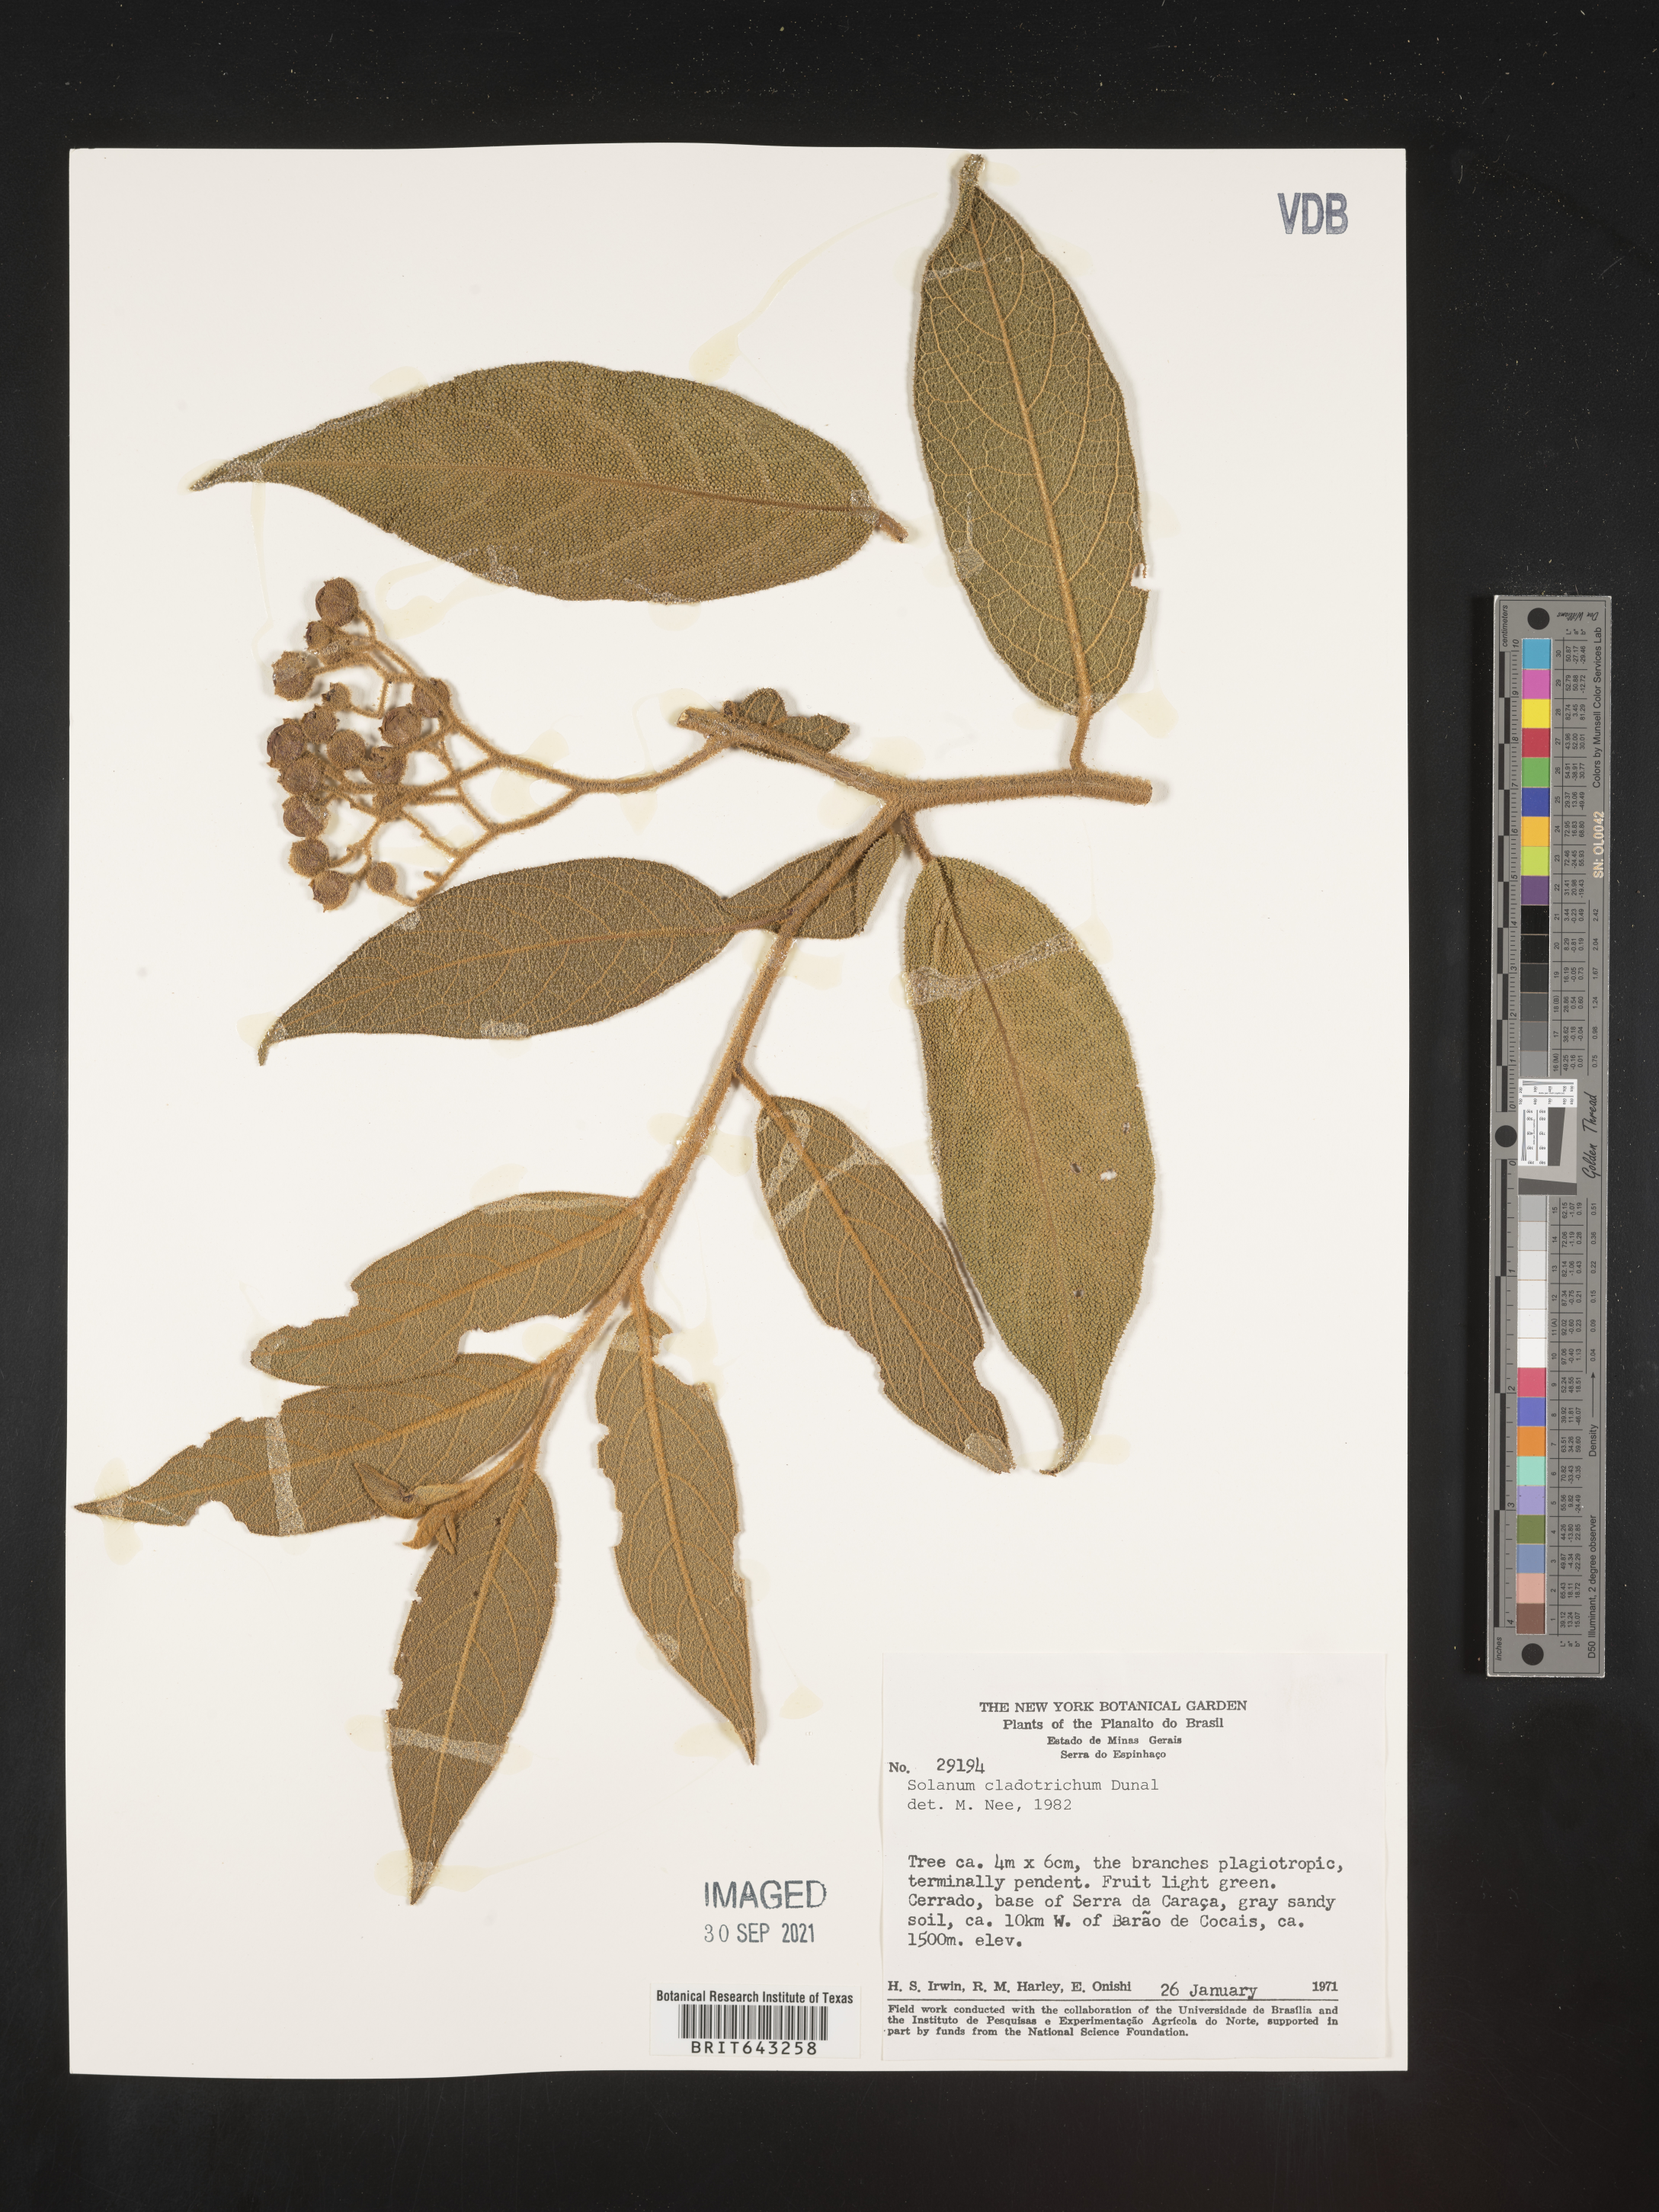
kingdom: Plantae
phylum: Tracheophyta
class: Magnoliopsida
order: Solanales
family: Solanaceae
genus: Solanum
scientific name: Solanum
